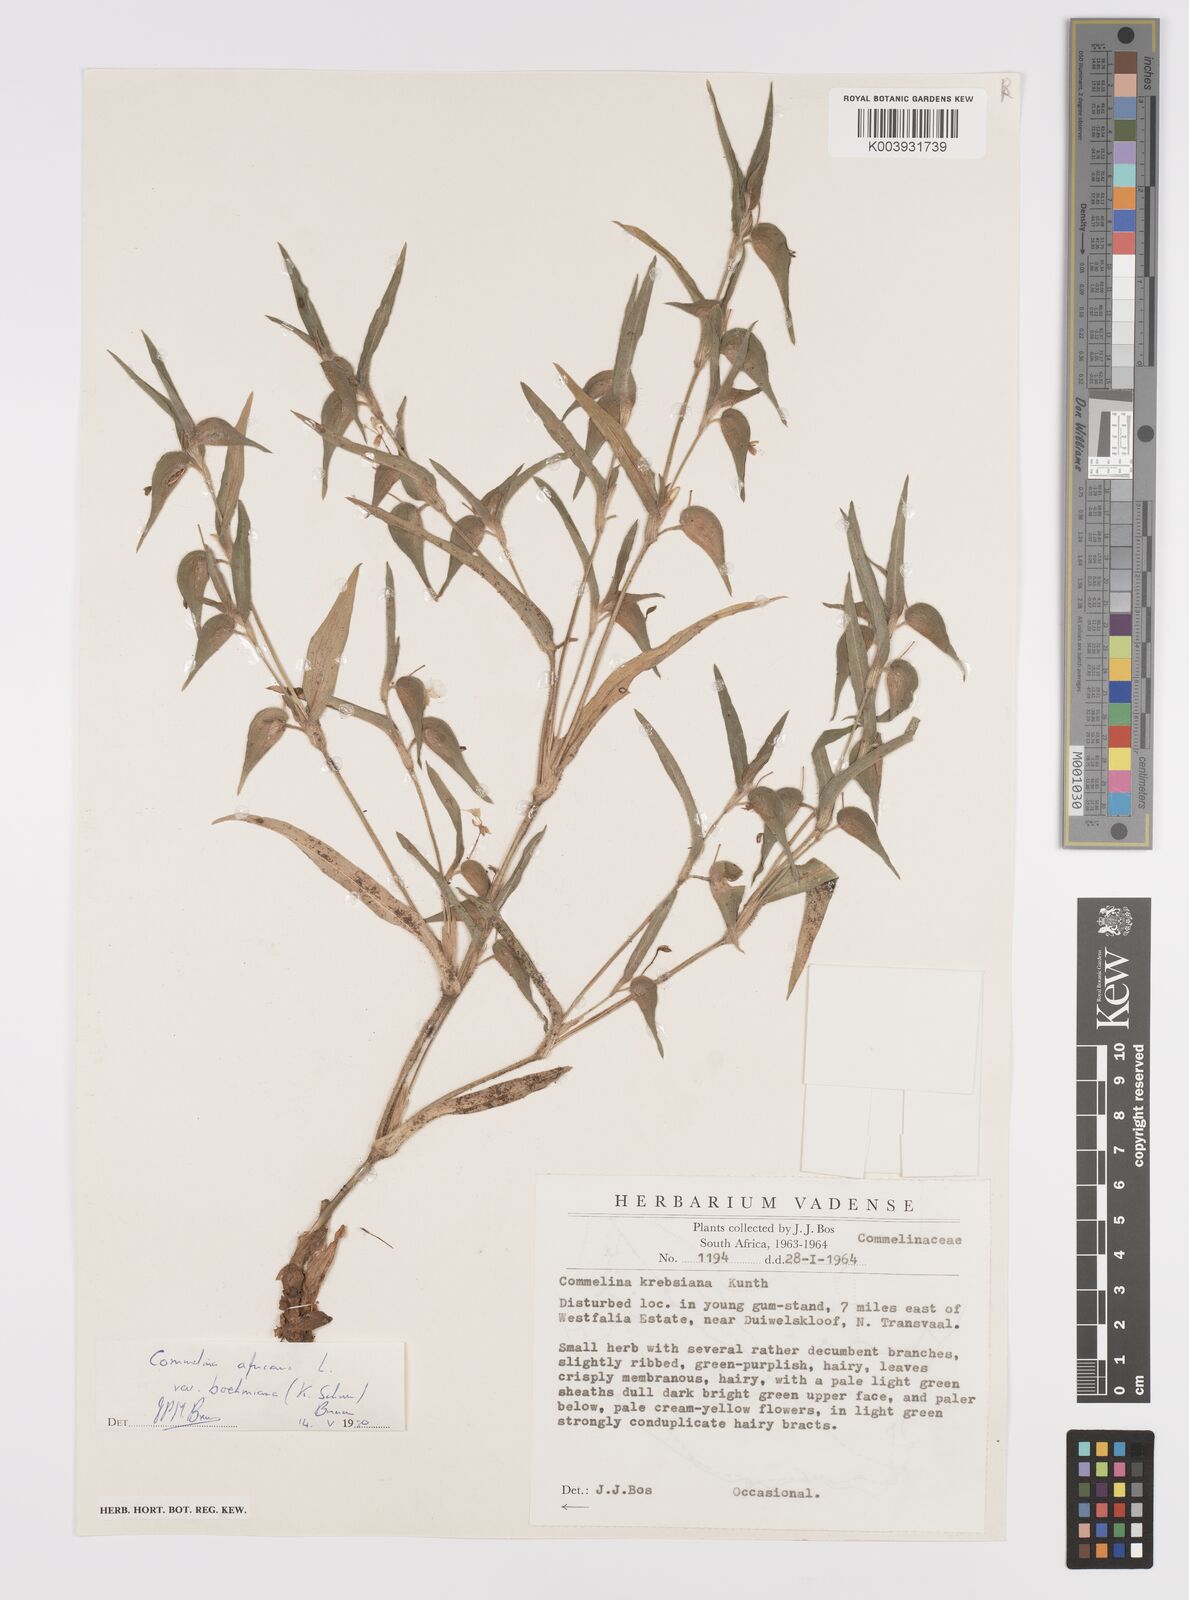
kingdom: Plantae
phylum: Tracheophyta
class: Liliopsida
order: Commelinales
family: Commelinaceae
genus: Commelina
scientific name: Commelina africana
